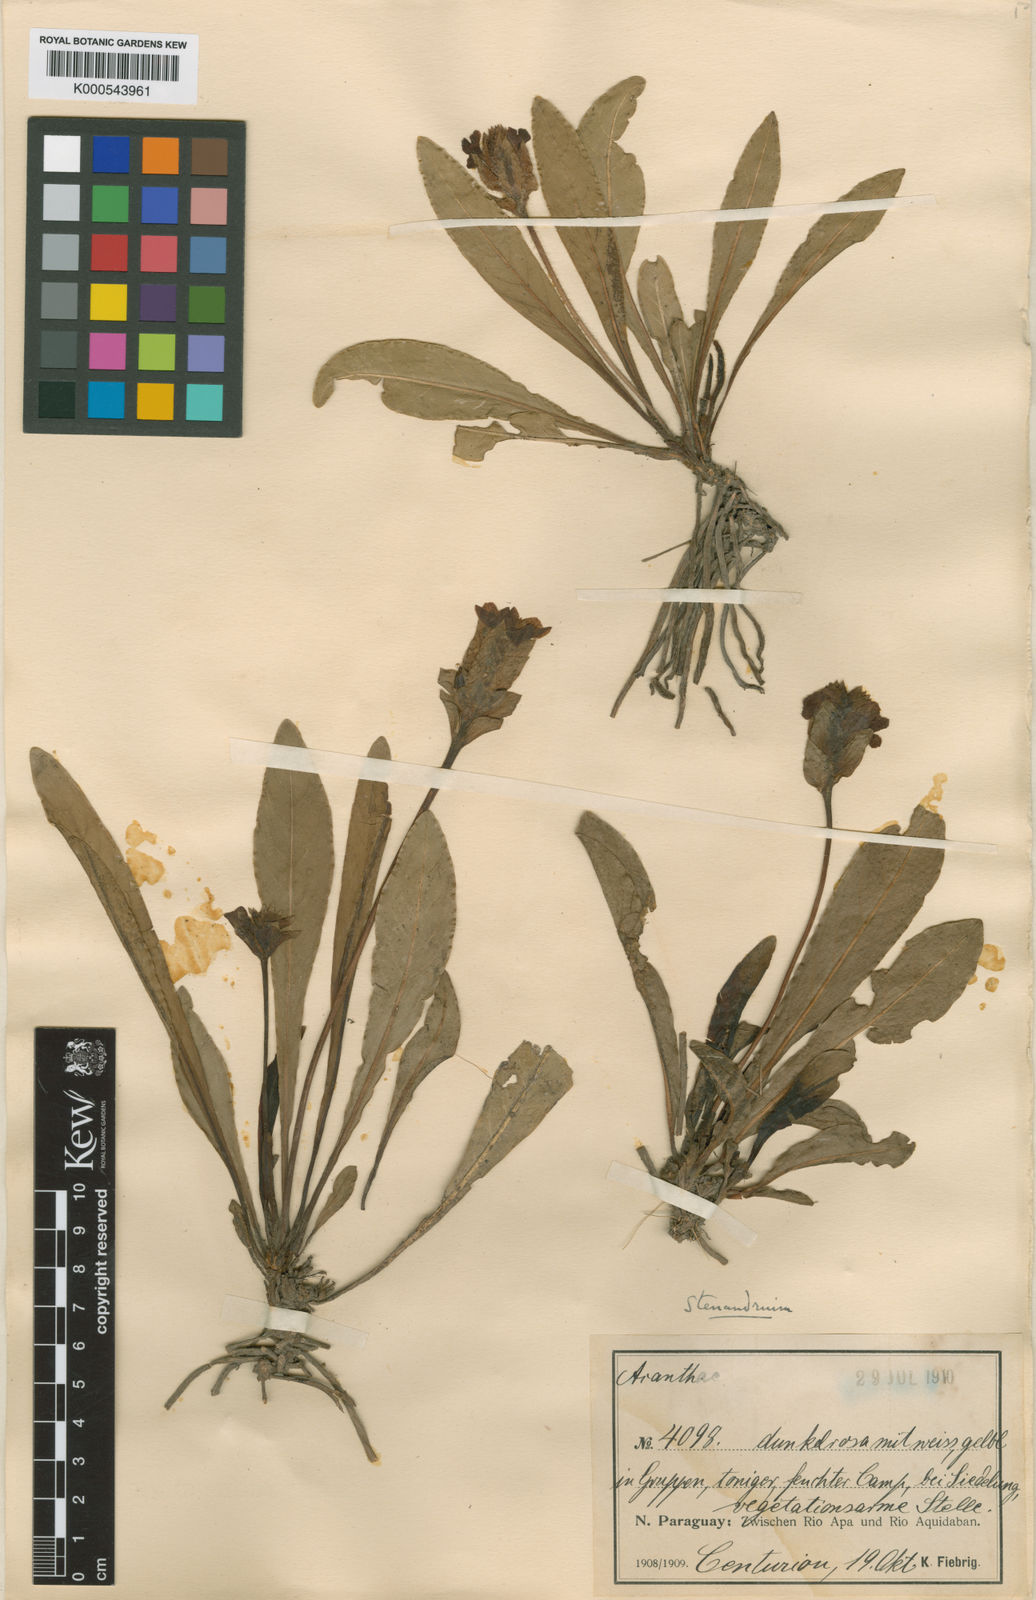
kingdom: Plantae
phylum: Tracheophyta
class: Magnoliopsida
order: Lamiales
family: Acanthaceae
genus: Stenandrium
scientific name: Stenandrium
